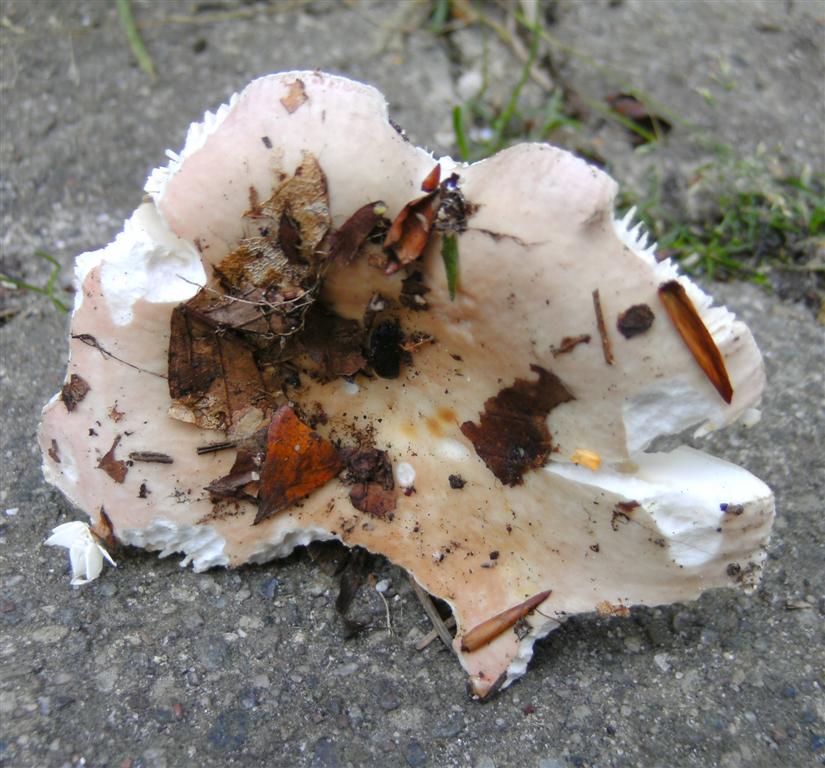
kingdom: Fungi
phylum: Basidiomycota
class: Agaricomycetes
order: Russulales
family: Russulaceae
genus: Russula
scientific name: Russula
